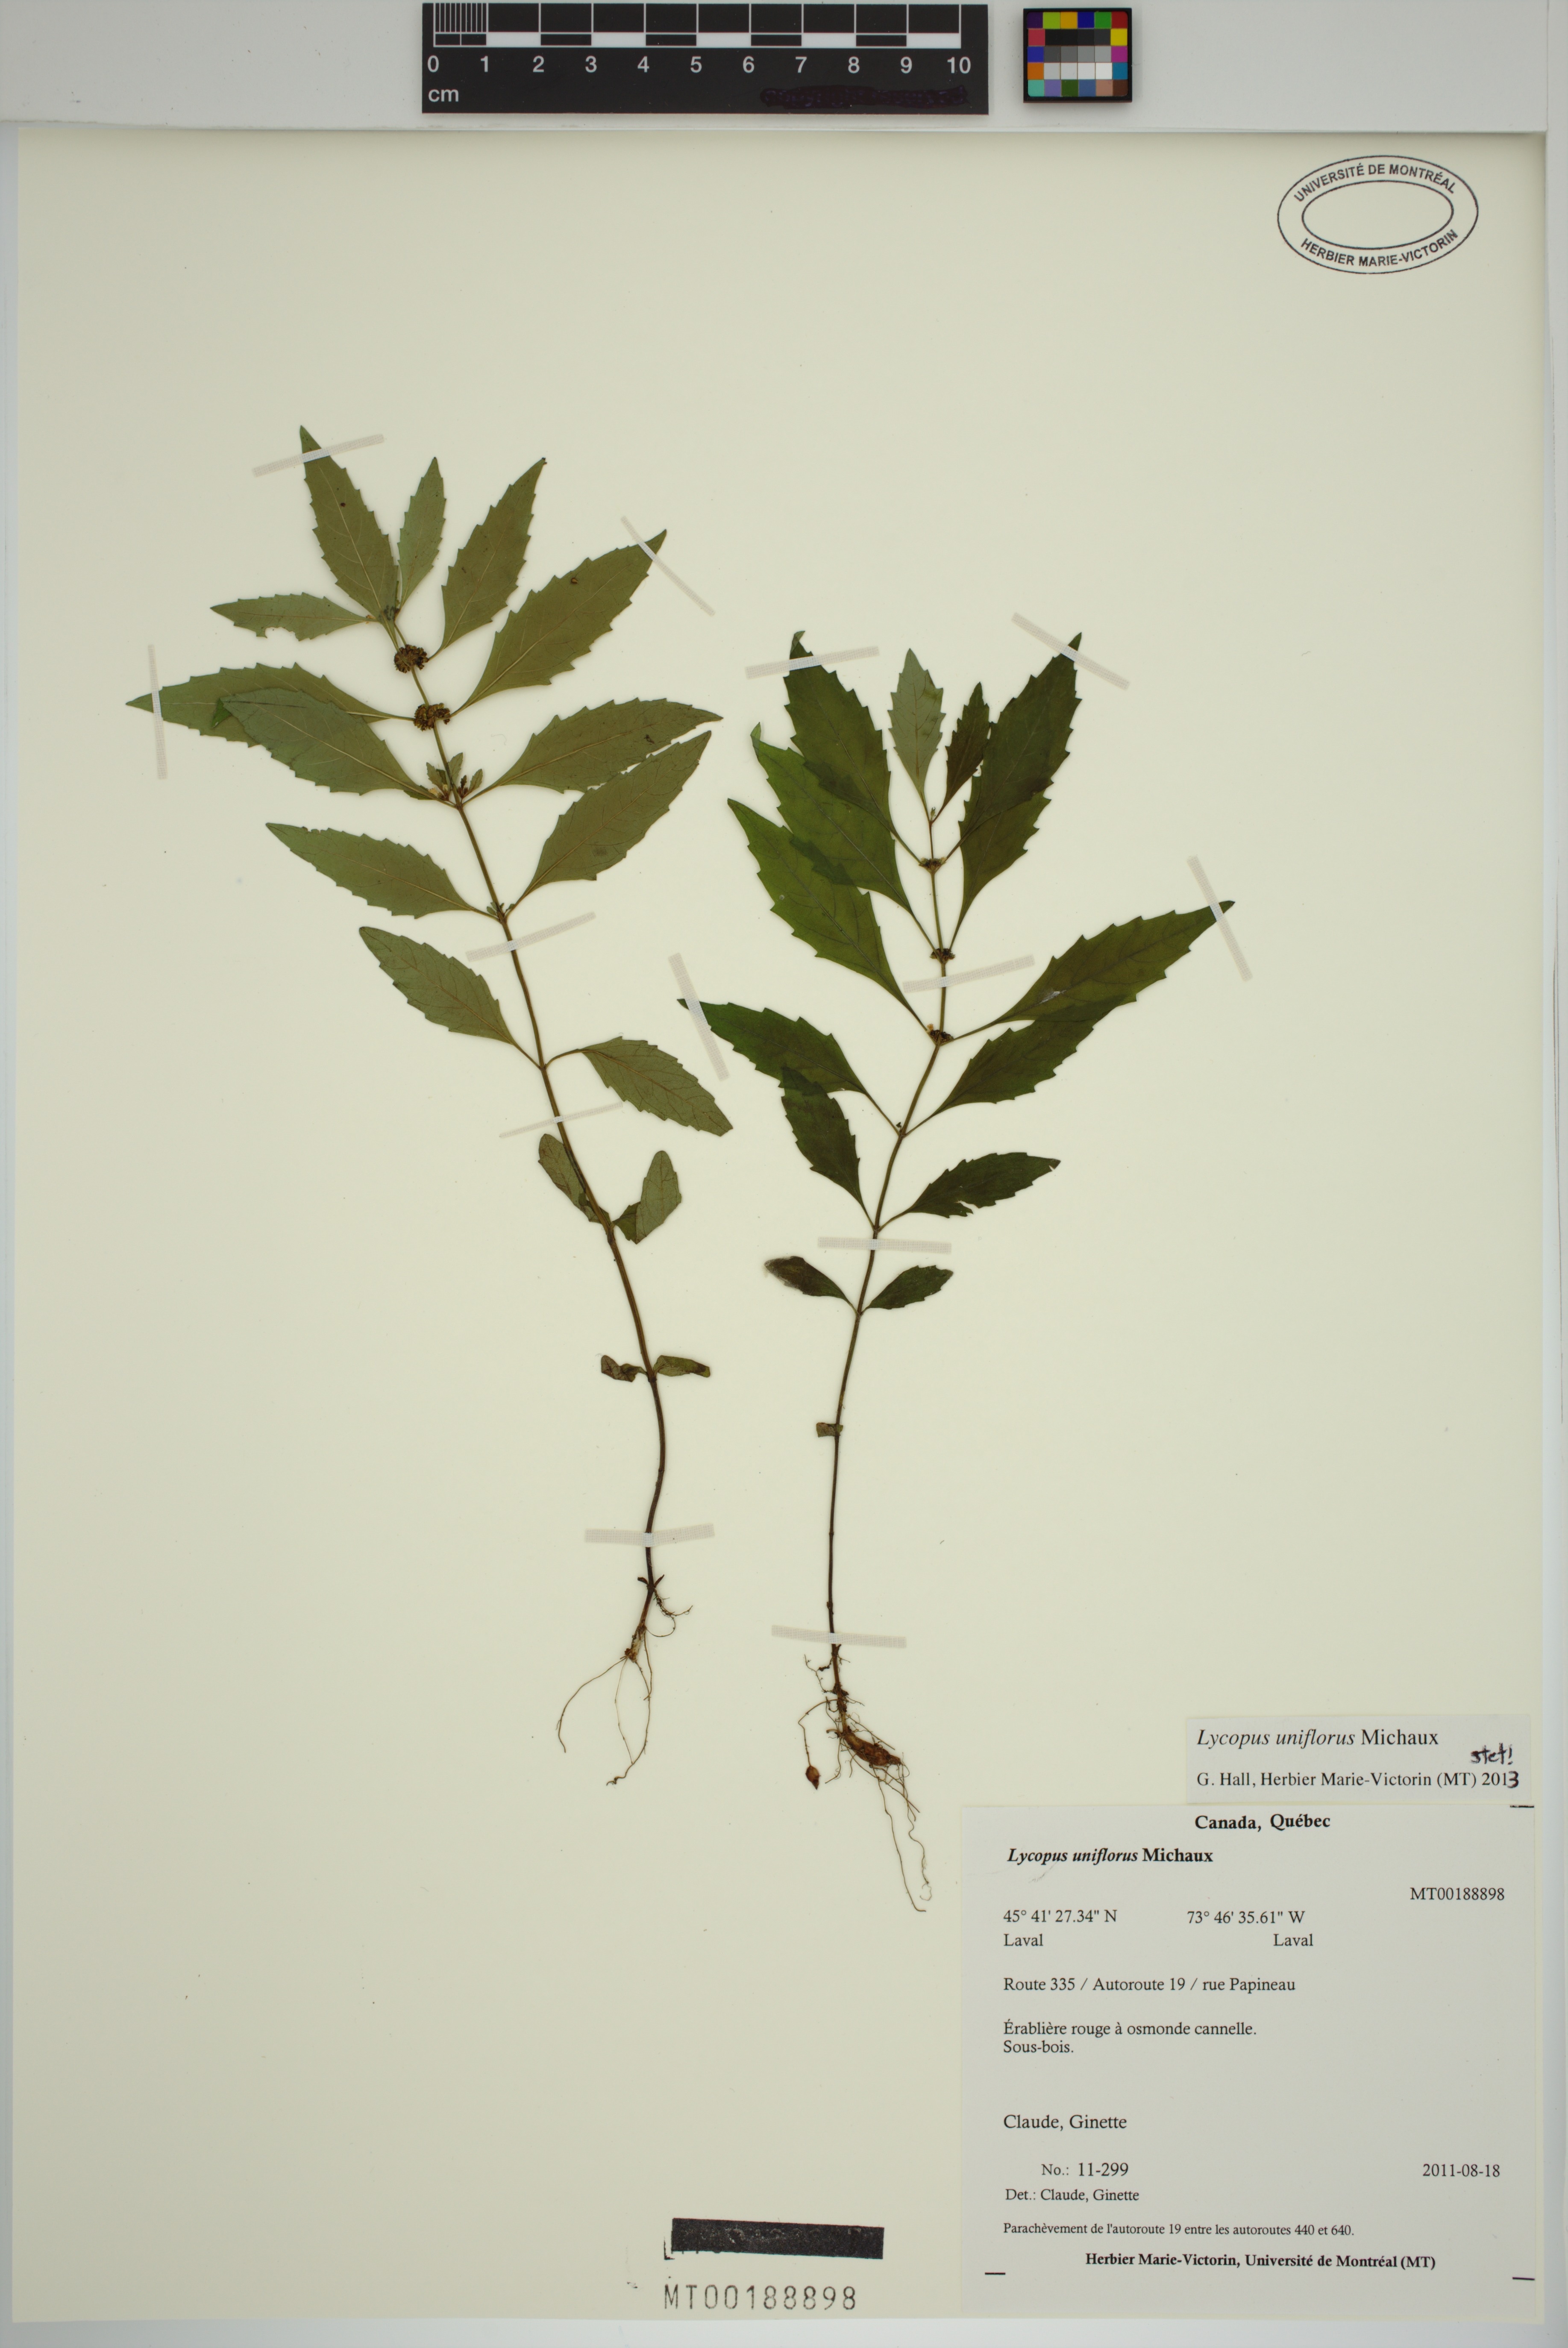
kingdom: Plantae
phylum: Tracheophyta
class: Magnoliopsida
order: Lamiales
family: Lamiaceae
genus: Lycopus
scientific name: Lycopus uniflorus
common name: Northern bugleweed
